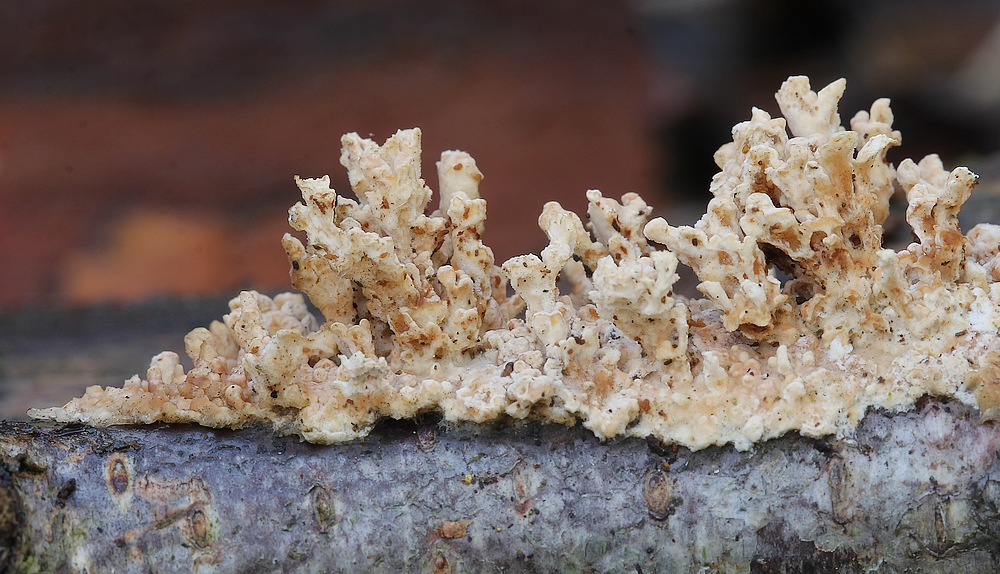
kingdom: Fungi
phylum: Basidiomycota
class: Agaricomycetes
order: Agaricales
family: Physalacriaceae
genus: Cylindrobasidium
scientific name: Cylindrobasidium evolvens
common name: sprækkehinde
